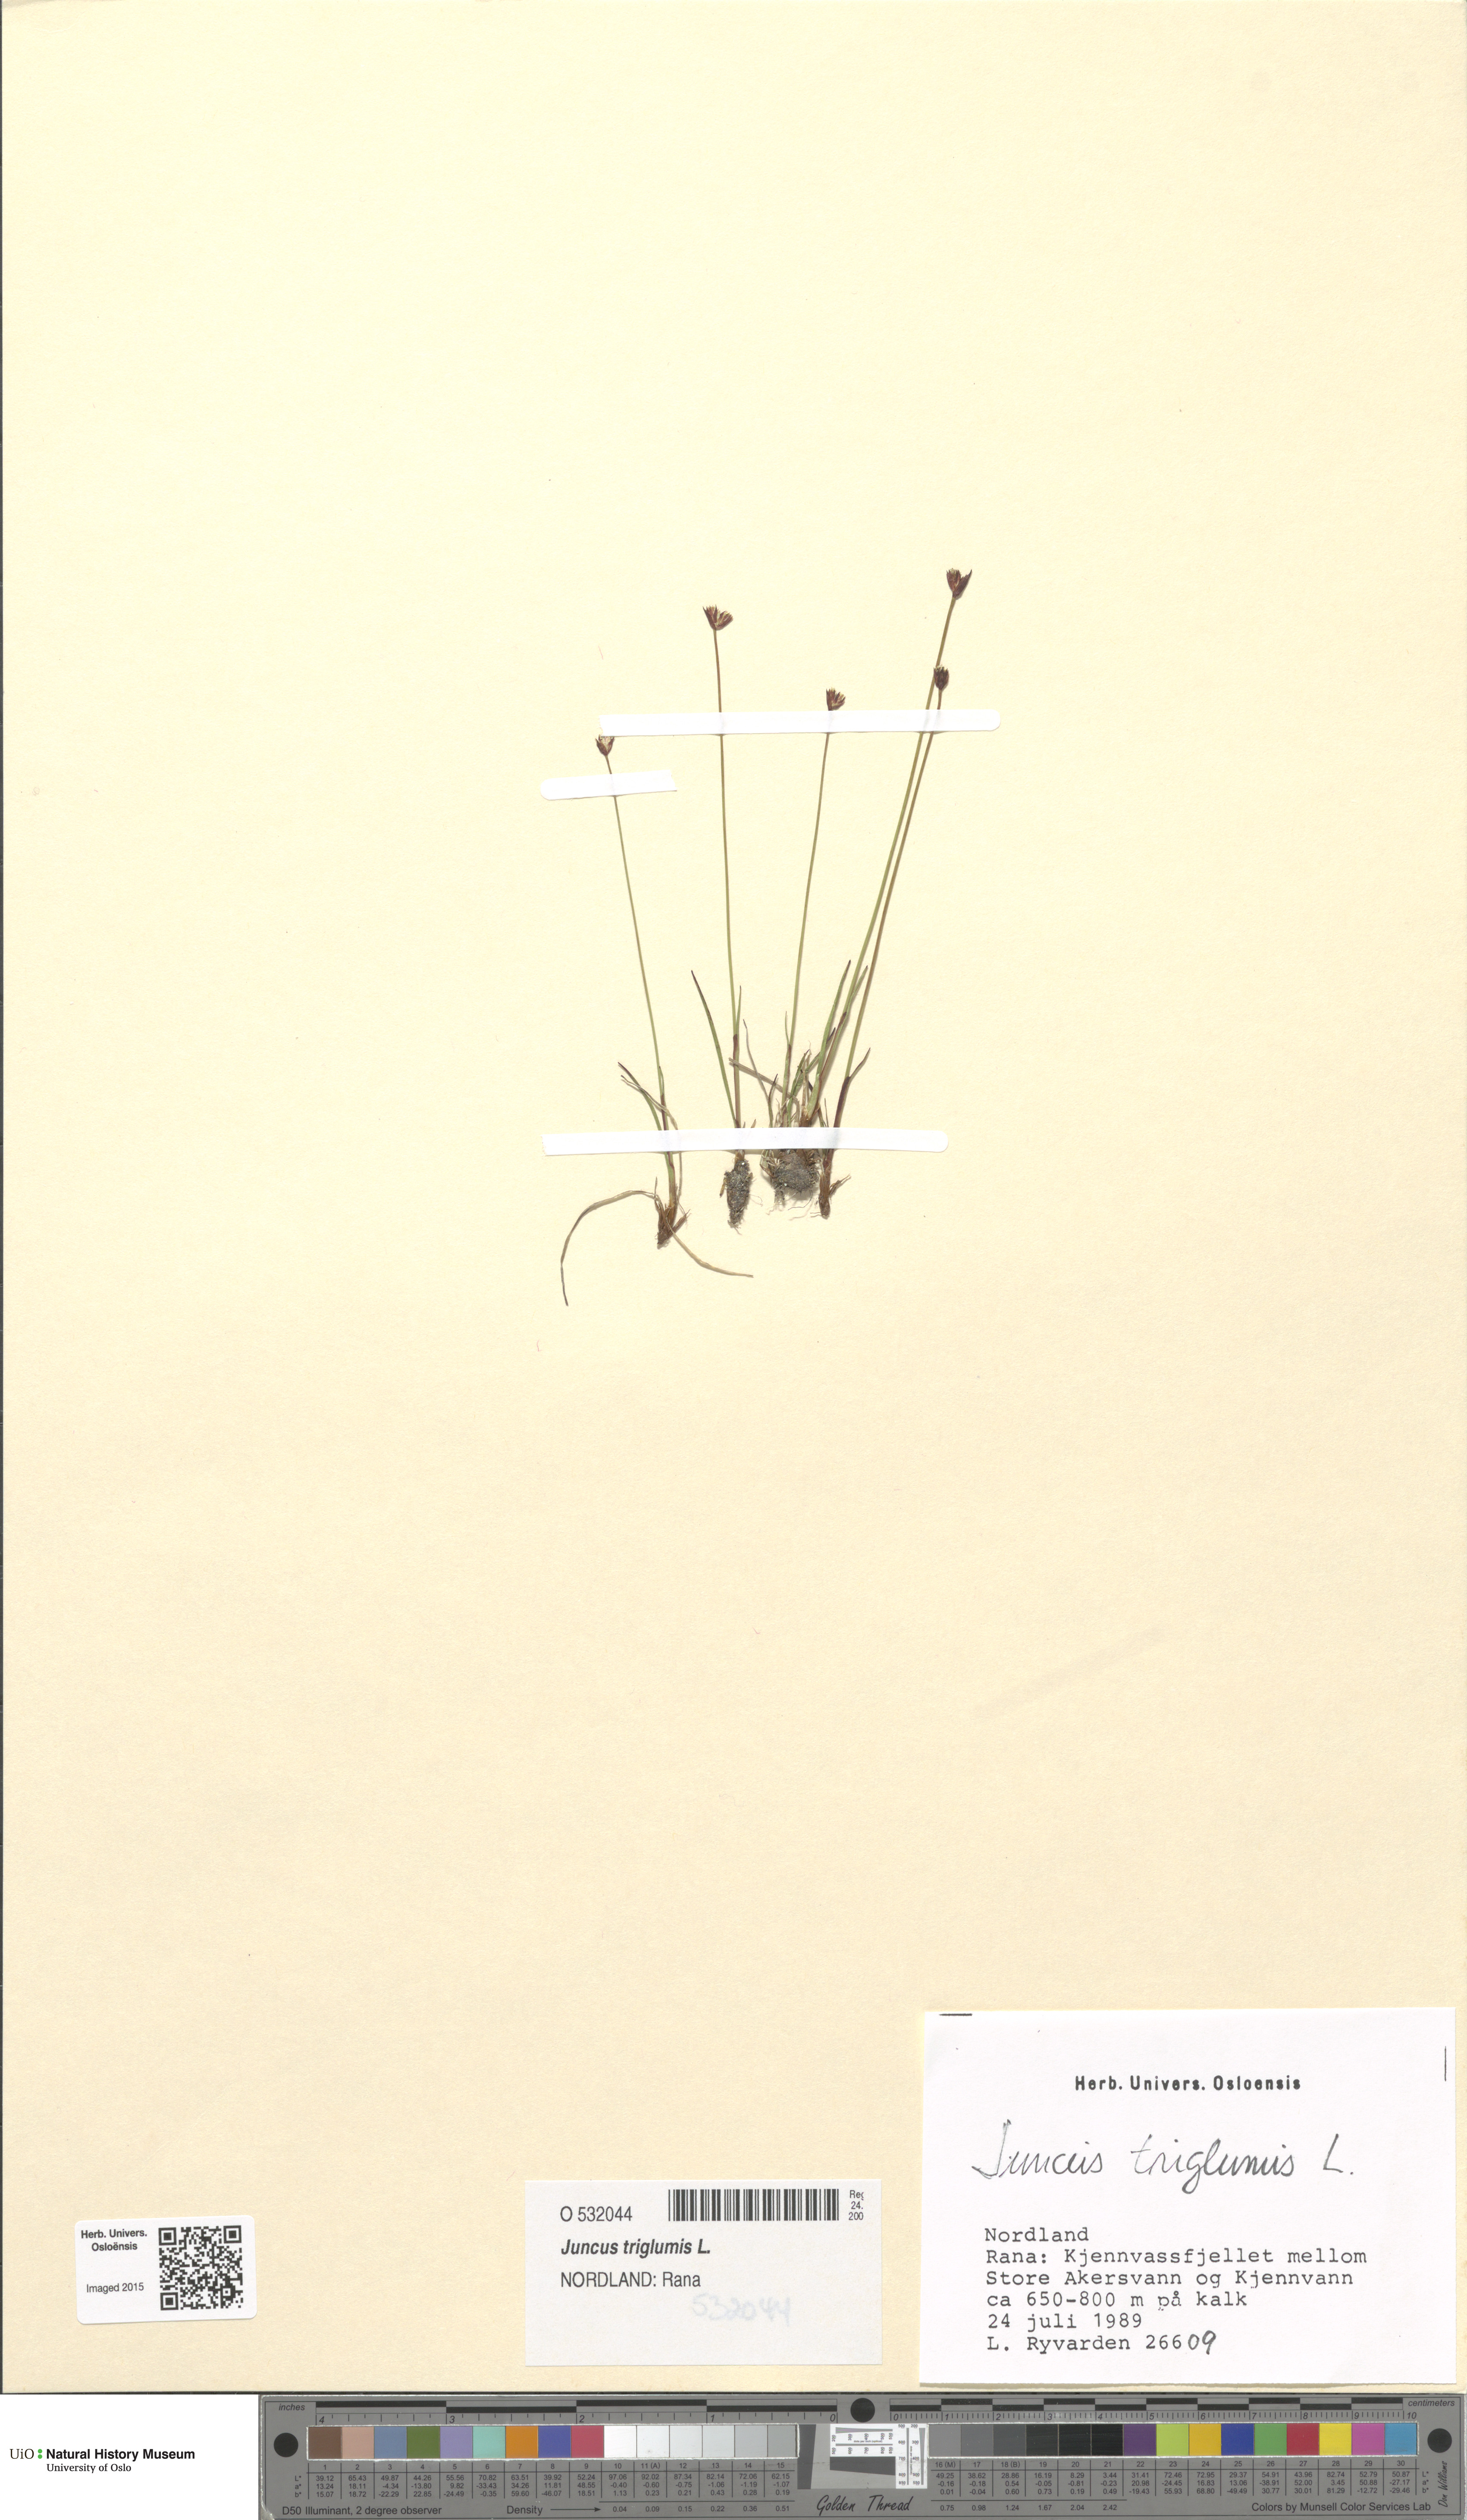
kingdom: Plantae
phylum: Tracheophyta
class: Liliopsida
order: Poales
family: Juncaceae
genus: Juncus
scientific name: Juncus triglumis
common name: Three-flowered rush
